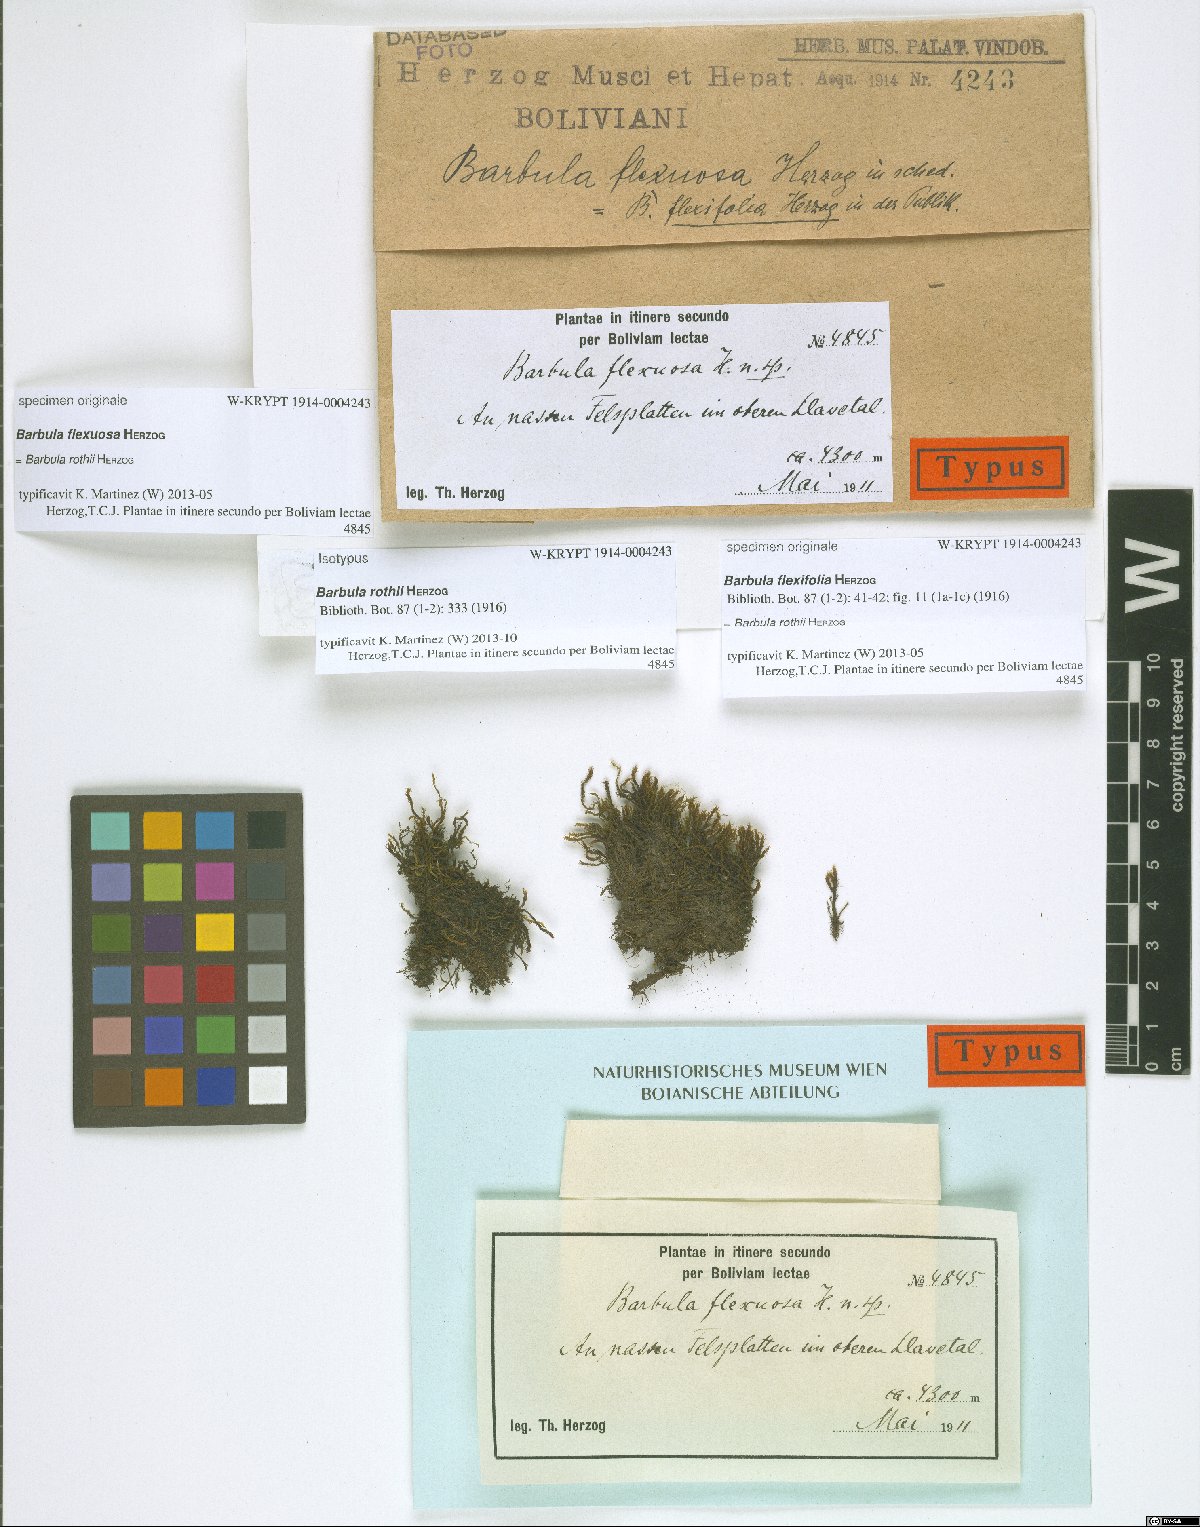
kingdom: Plantae
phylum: Bryophyta
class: Bryopsida
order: Pottiales
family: Pottiaceae
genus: Vinealobryum
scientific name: Vinealobryum vineale
